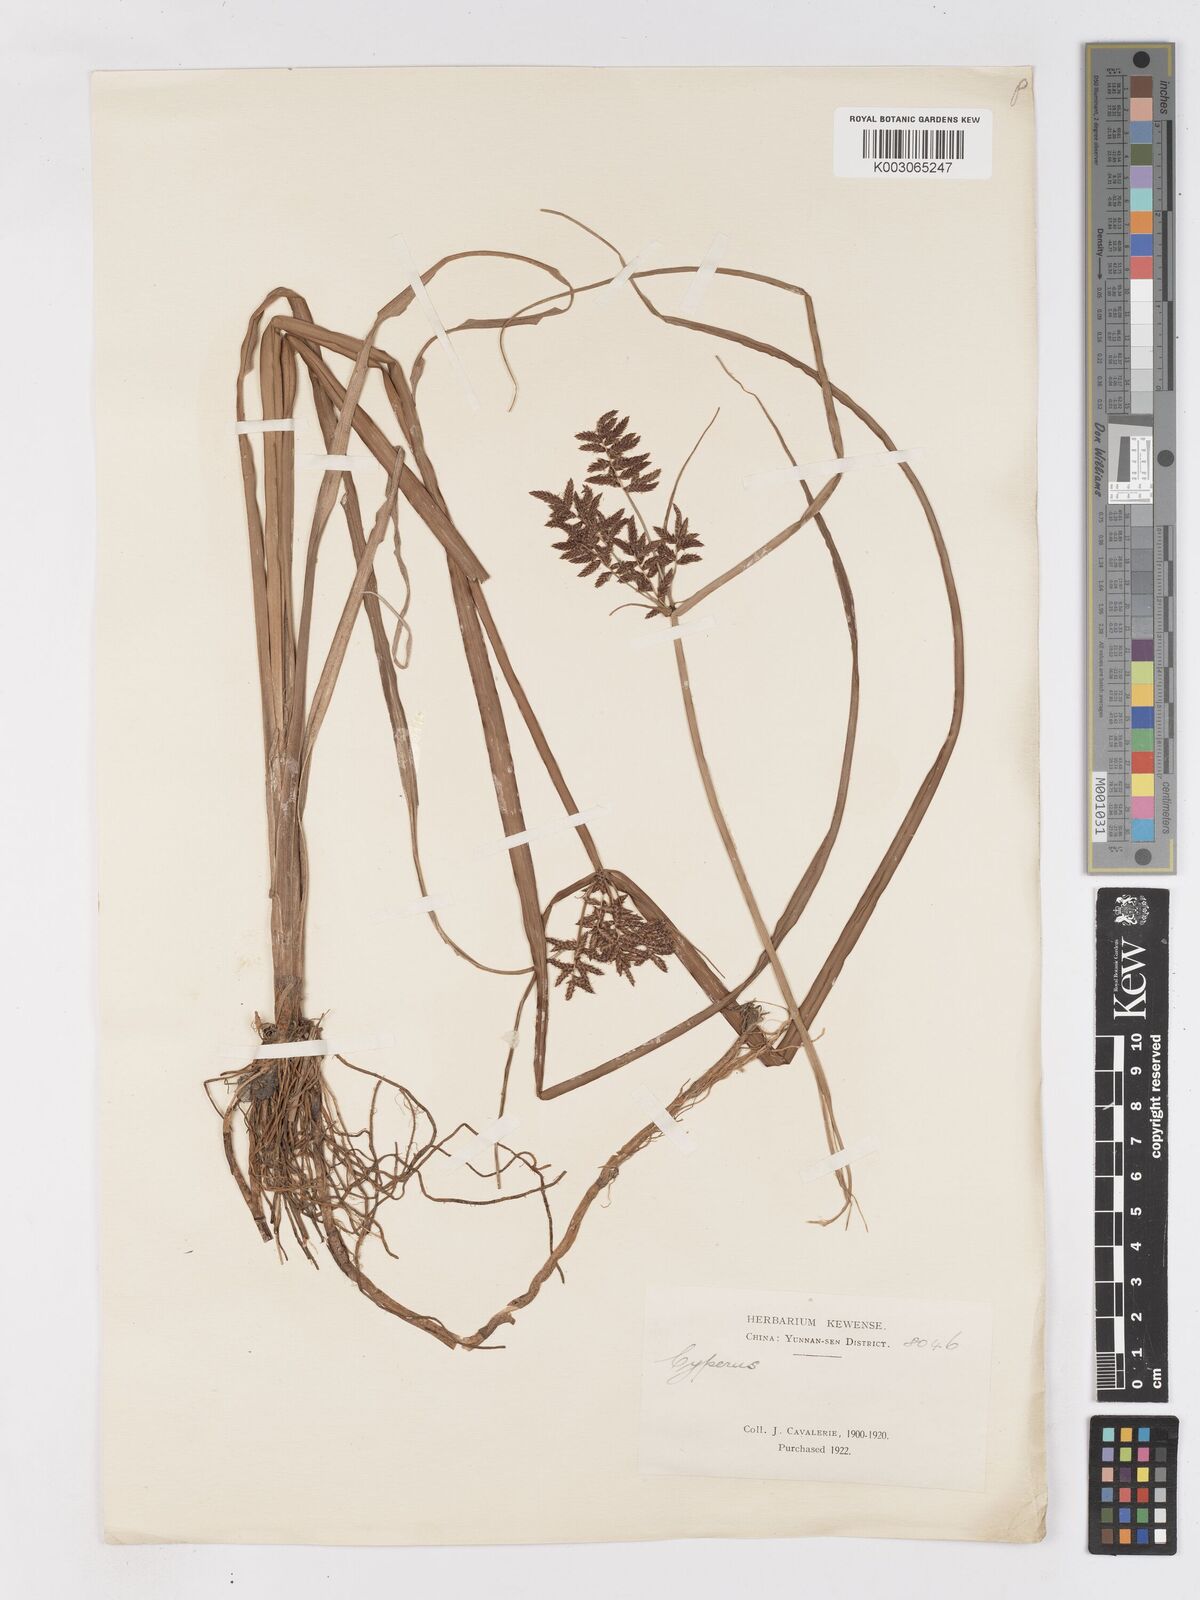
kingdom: Plantae
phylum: Tracheophyta
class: Liliopsida
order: Poales
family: Cyperaceae
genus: Cyperus
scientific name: Cyperus serotinus
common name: Tidalmarsh flatsedge
